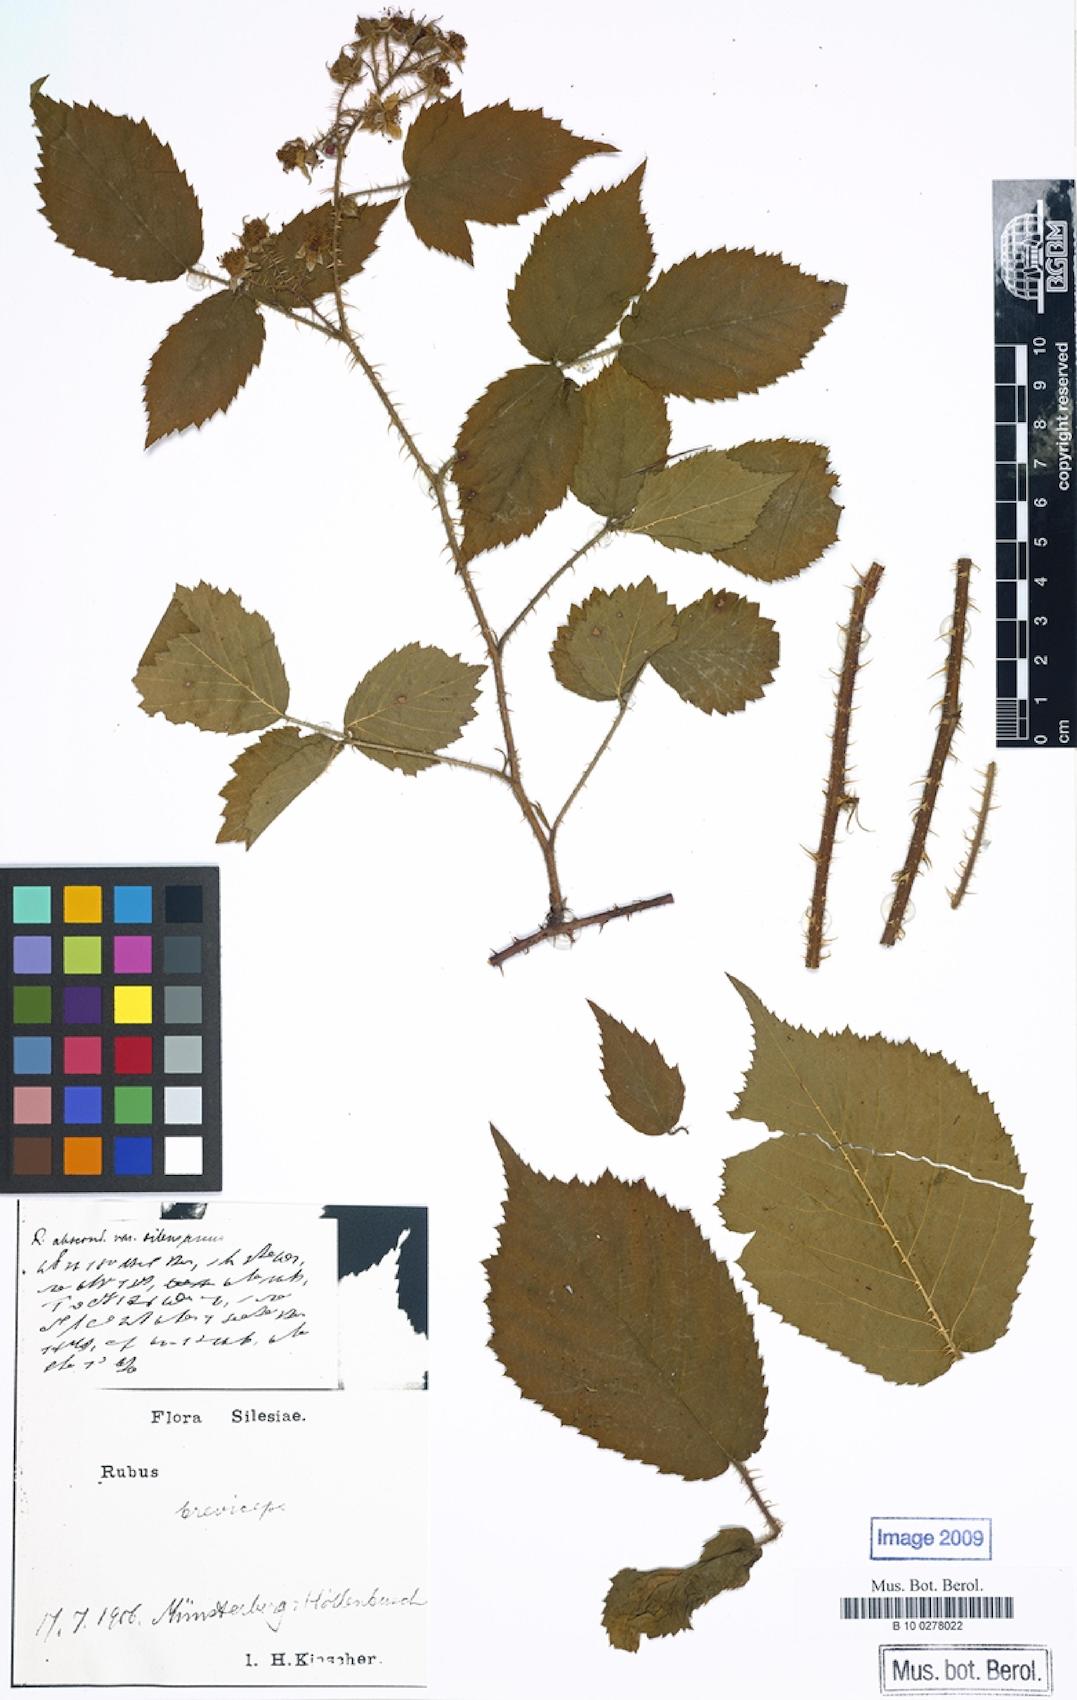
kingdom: Plantae
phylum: Tracheophyta
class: Magnoliopsida
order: Rosales
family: Rosaceae
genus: Rubus
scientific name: Rubus breviceps
